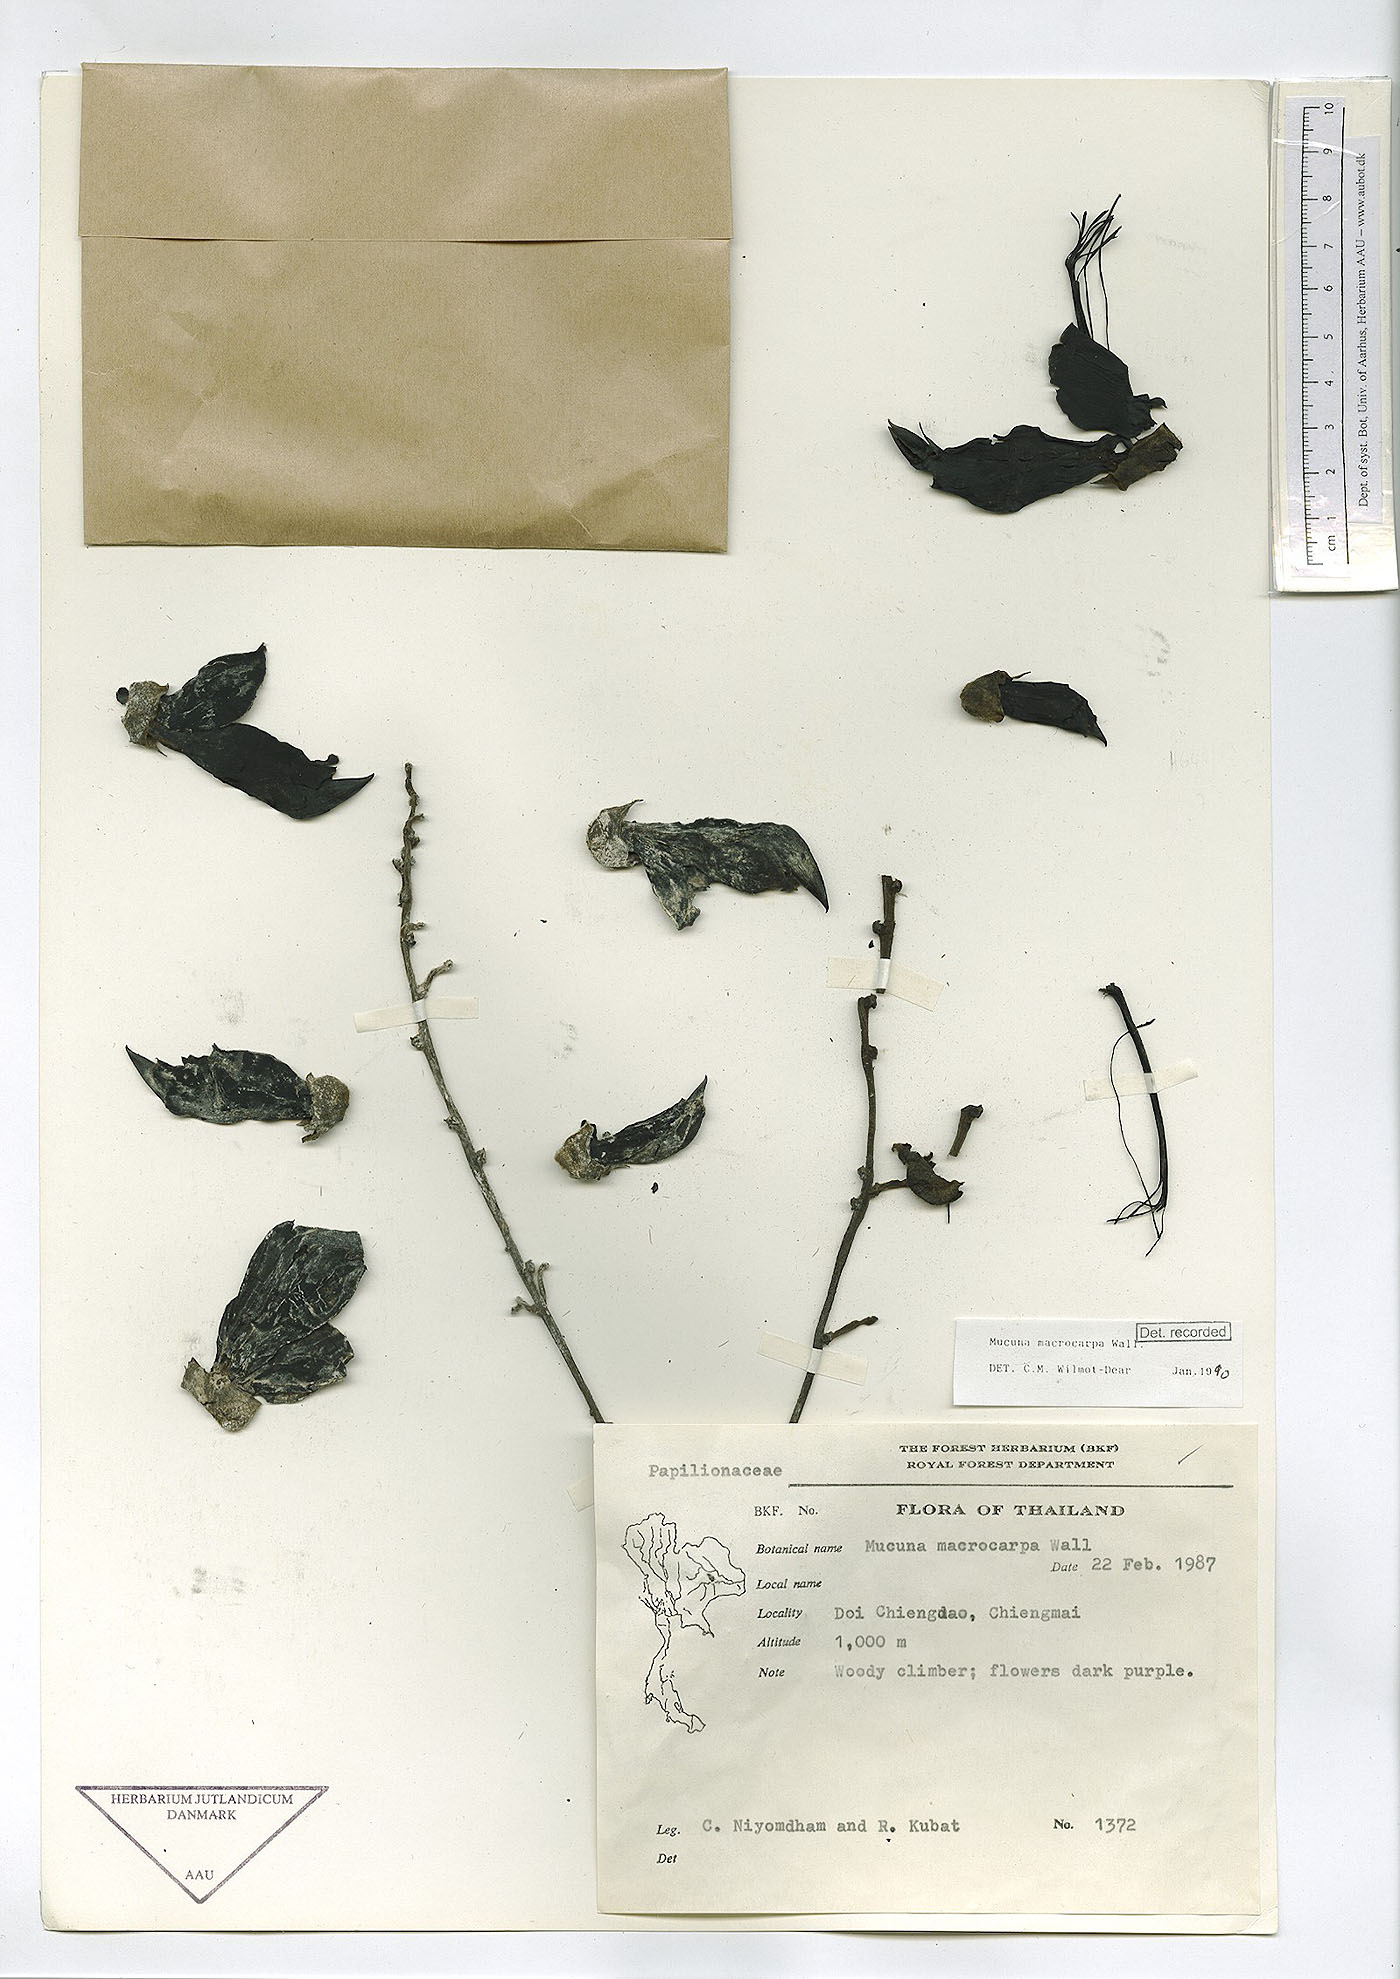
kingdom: Plantae
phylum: Tracheophyta
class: Magnoliopsida
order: Fabales
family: Fabaceae
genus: Mucuna
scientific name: Mucuna macrocarpa
